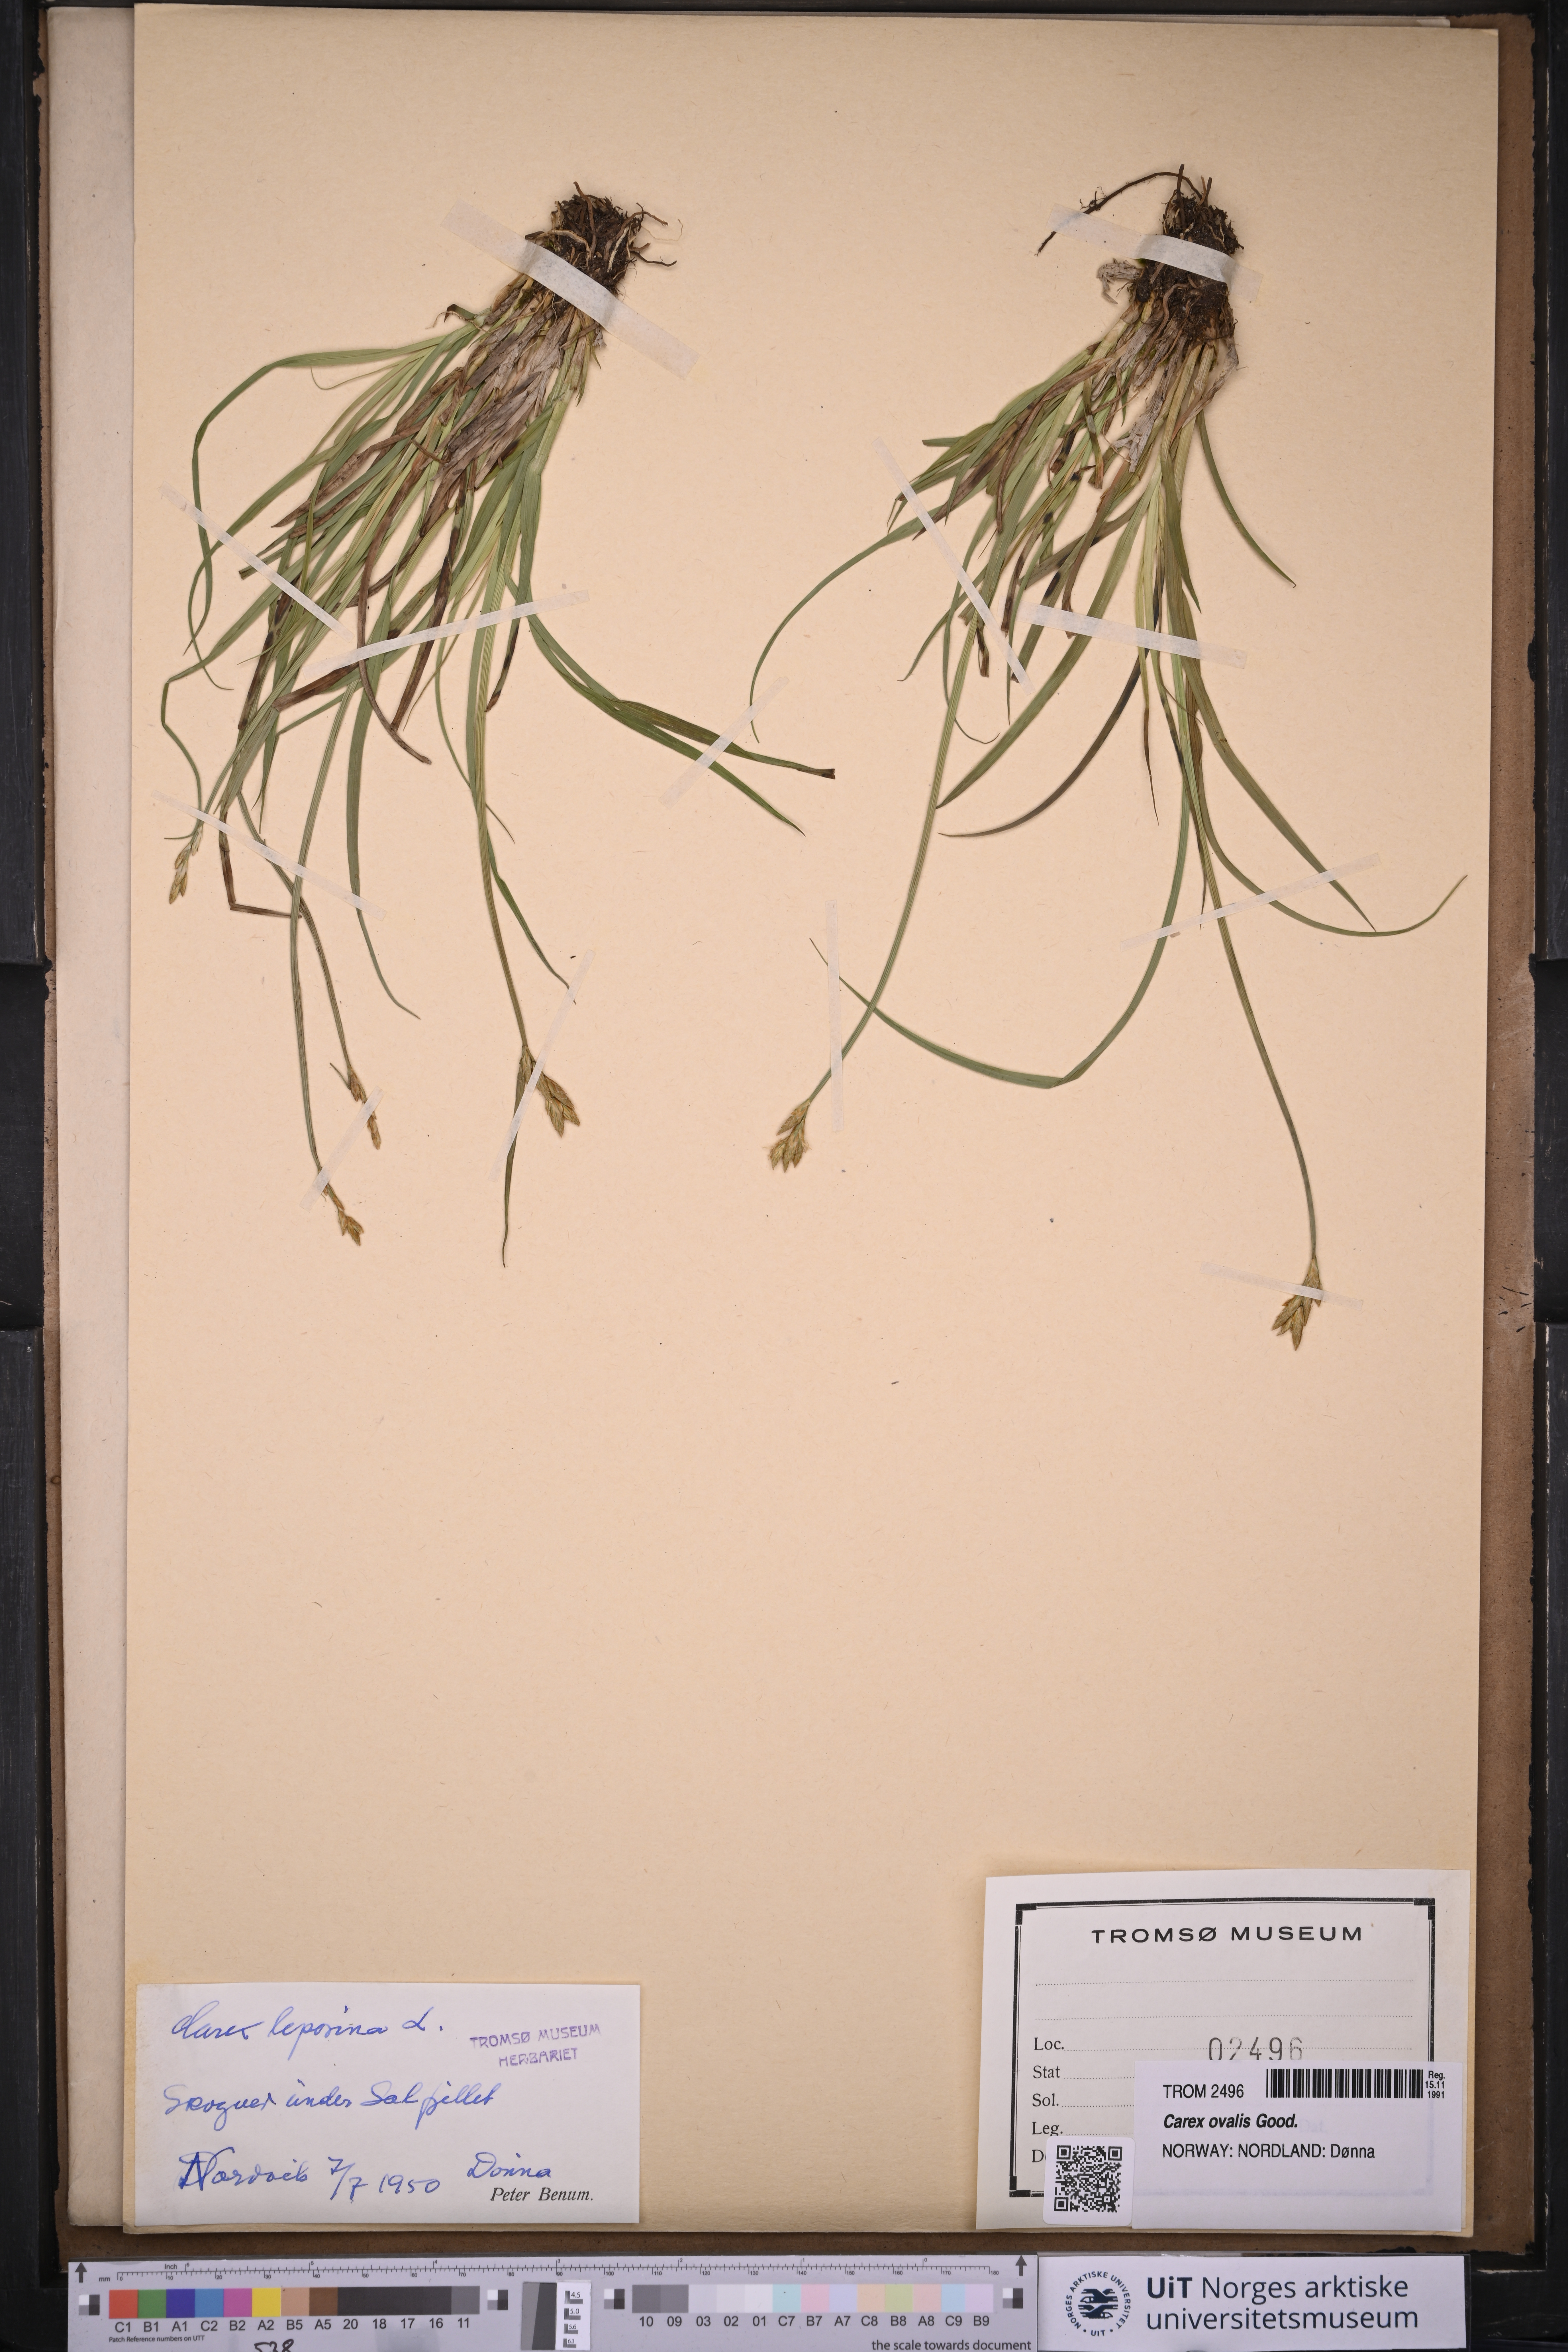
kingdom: Plantae
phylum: Tracheophyta
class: Liliopsida
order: Poales
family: Cyperaceae
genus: Carex
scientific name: Carex leporina
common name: Oval sedge
